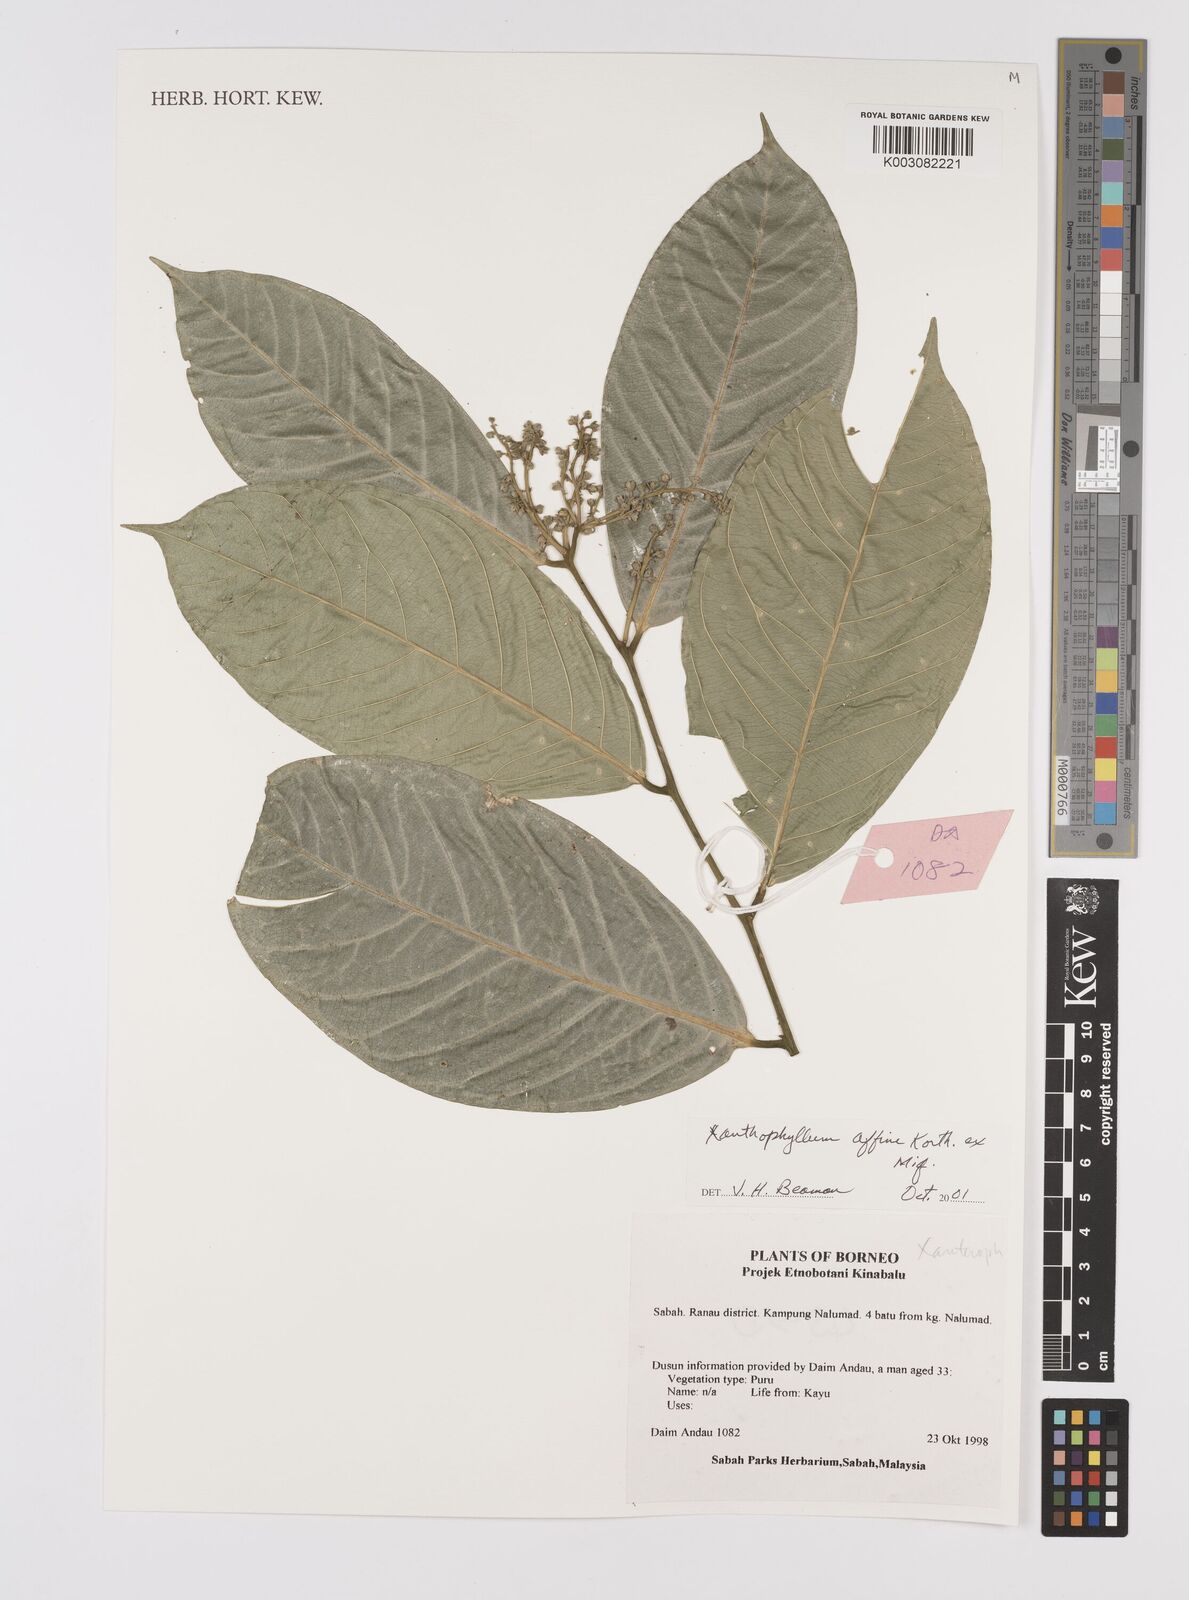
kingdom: Plantae
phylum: Tracheophyta
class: Magnoliopsida
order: Fabales
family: Polygalaceae
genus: Xanthophyllum
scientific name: Xanthophyllum flavescens
